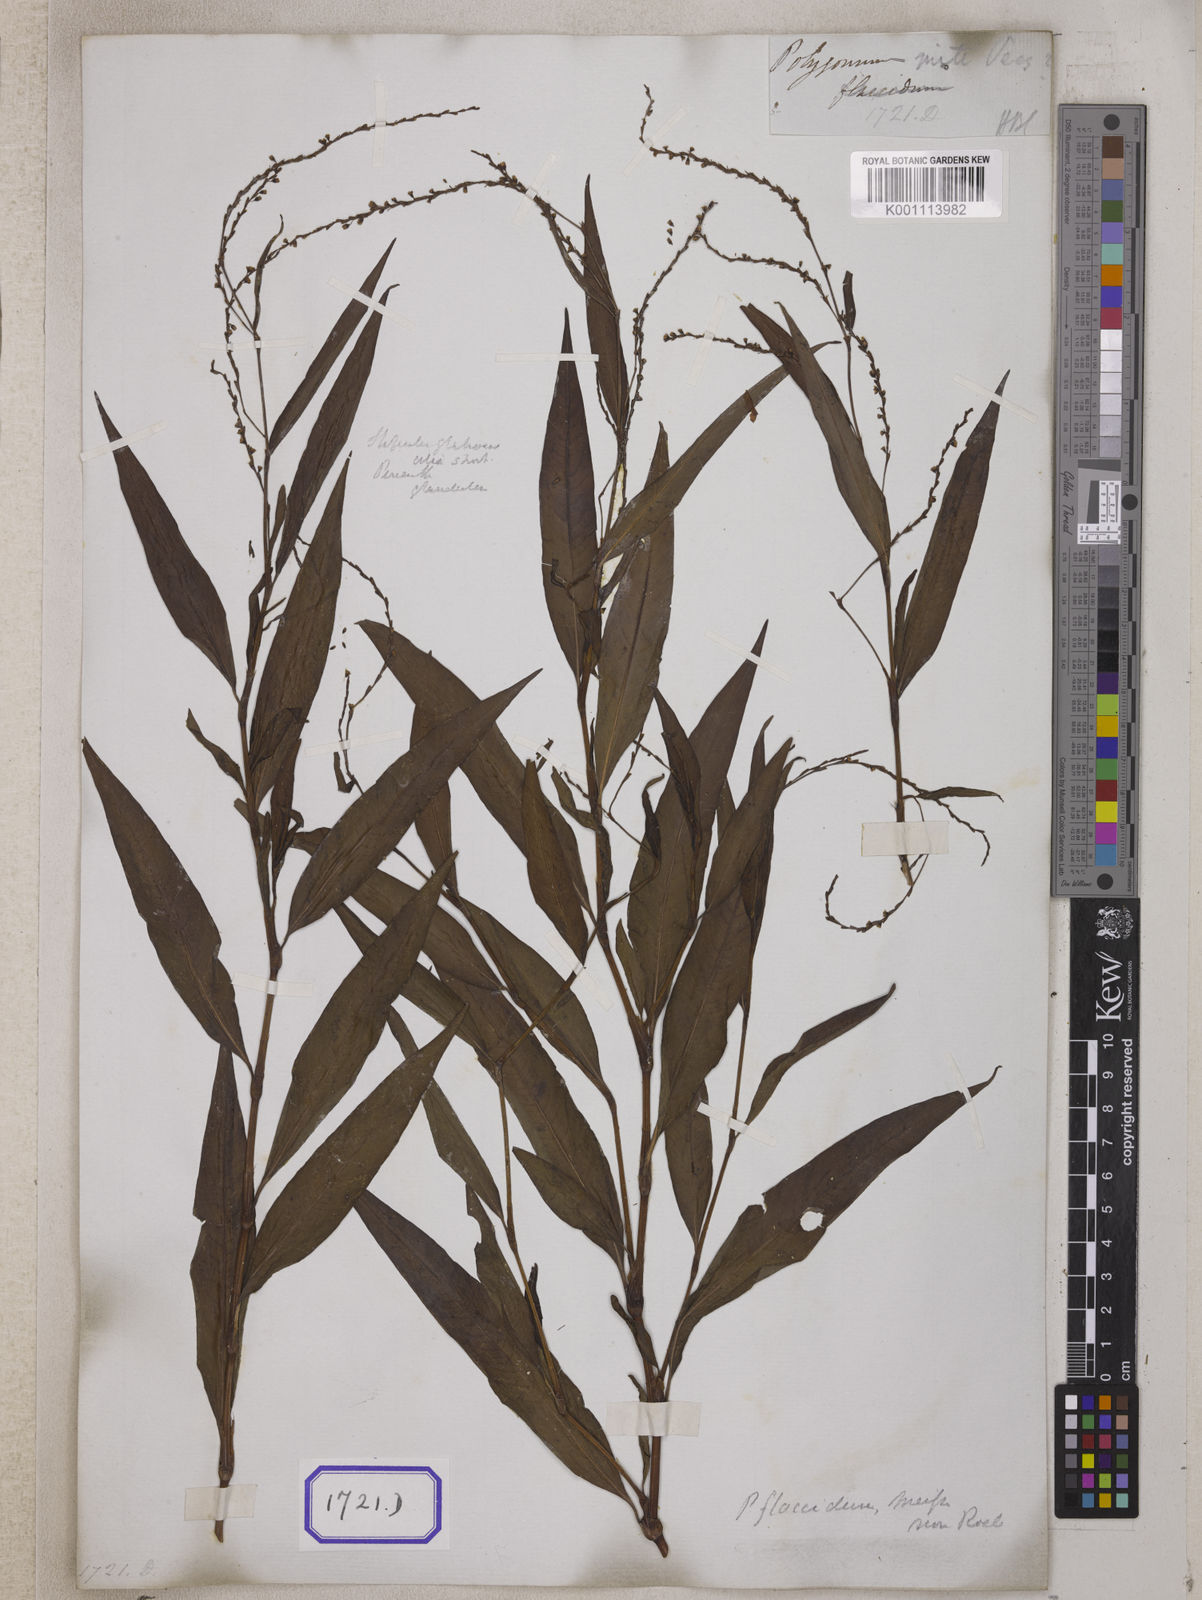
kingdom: Plantae
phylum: Tracheophyta
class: Magnoliopsida
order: Caryophyllales
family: Polygonaceae
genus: Persicaria
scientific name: Persicaria hydropiperoides
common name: Swamp smartweed
